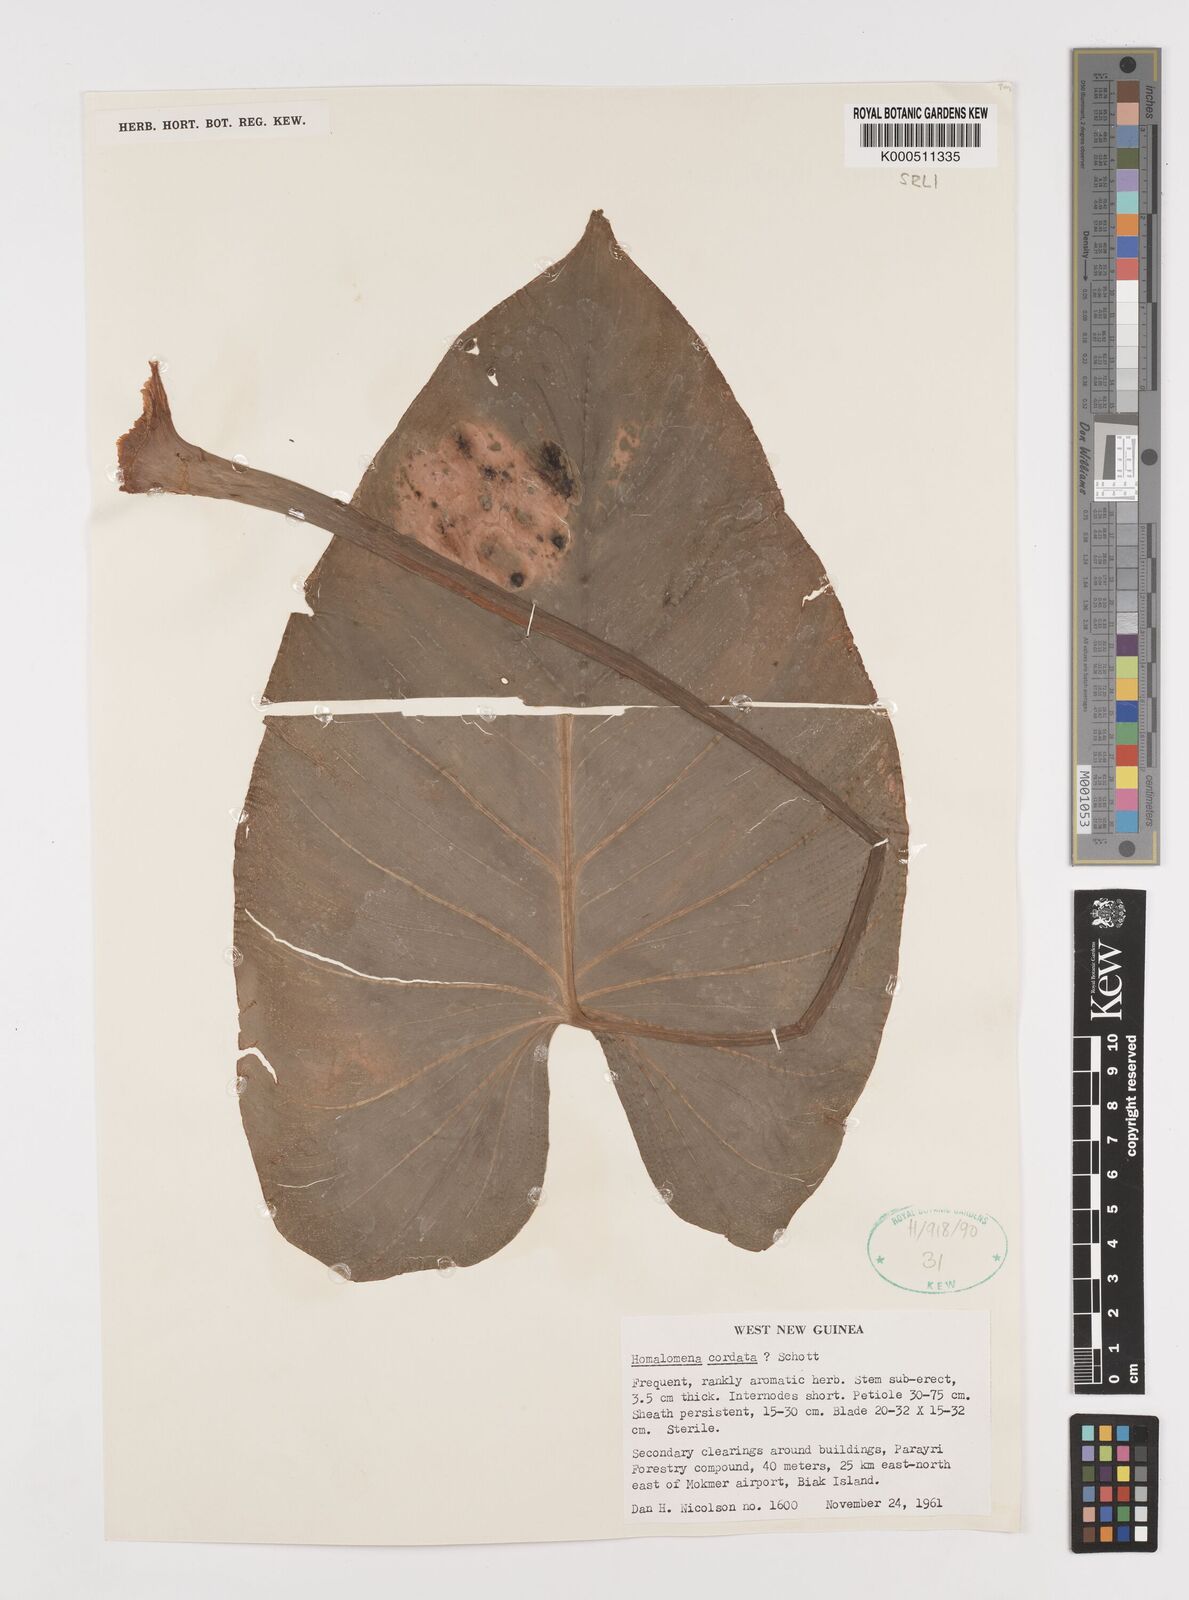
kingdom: Plantae
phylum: Tracheophyta
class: Liliopsida
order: Alismatales
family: Araceae
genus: Homalomena
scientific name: Homalomena cordata
